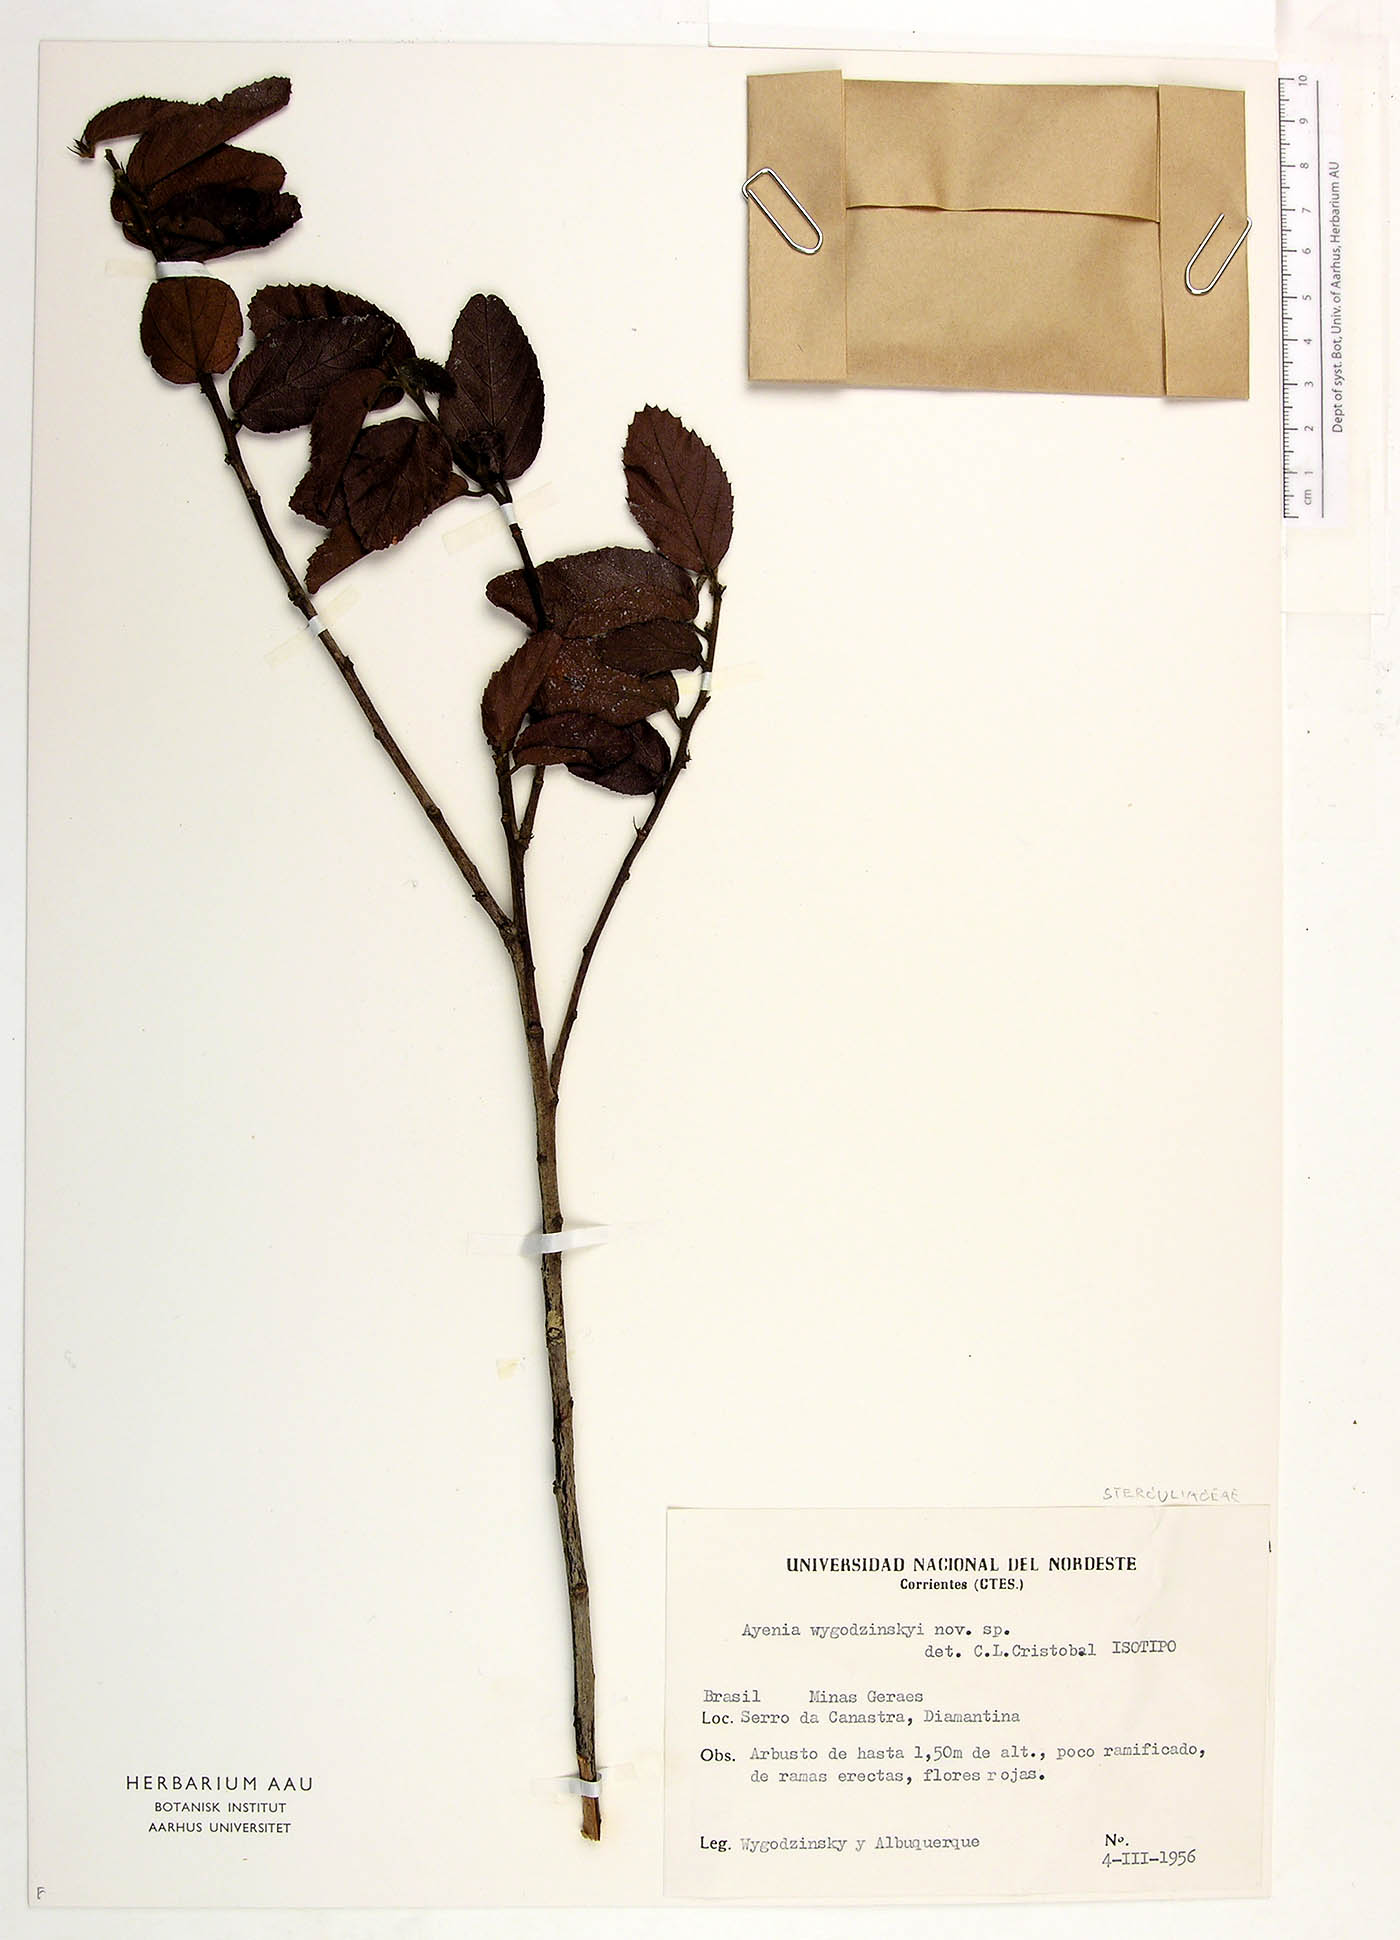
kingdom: Plantae
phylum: Tracheophyta
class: Magnoliopsida
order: Malvales
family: Malvaceae
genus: Ayenia
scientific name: Ayenia wygodzinskyi
